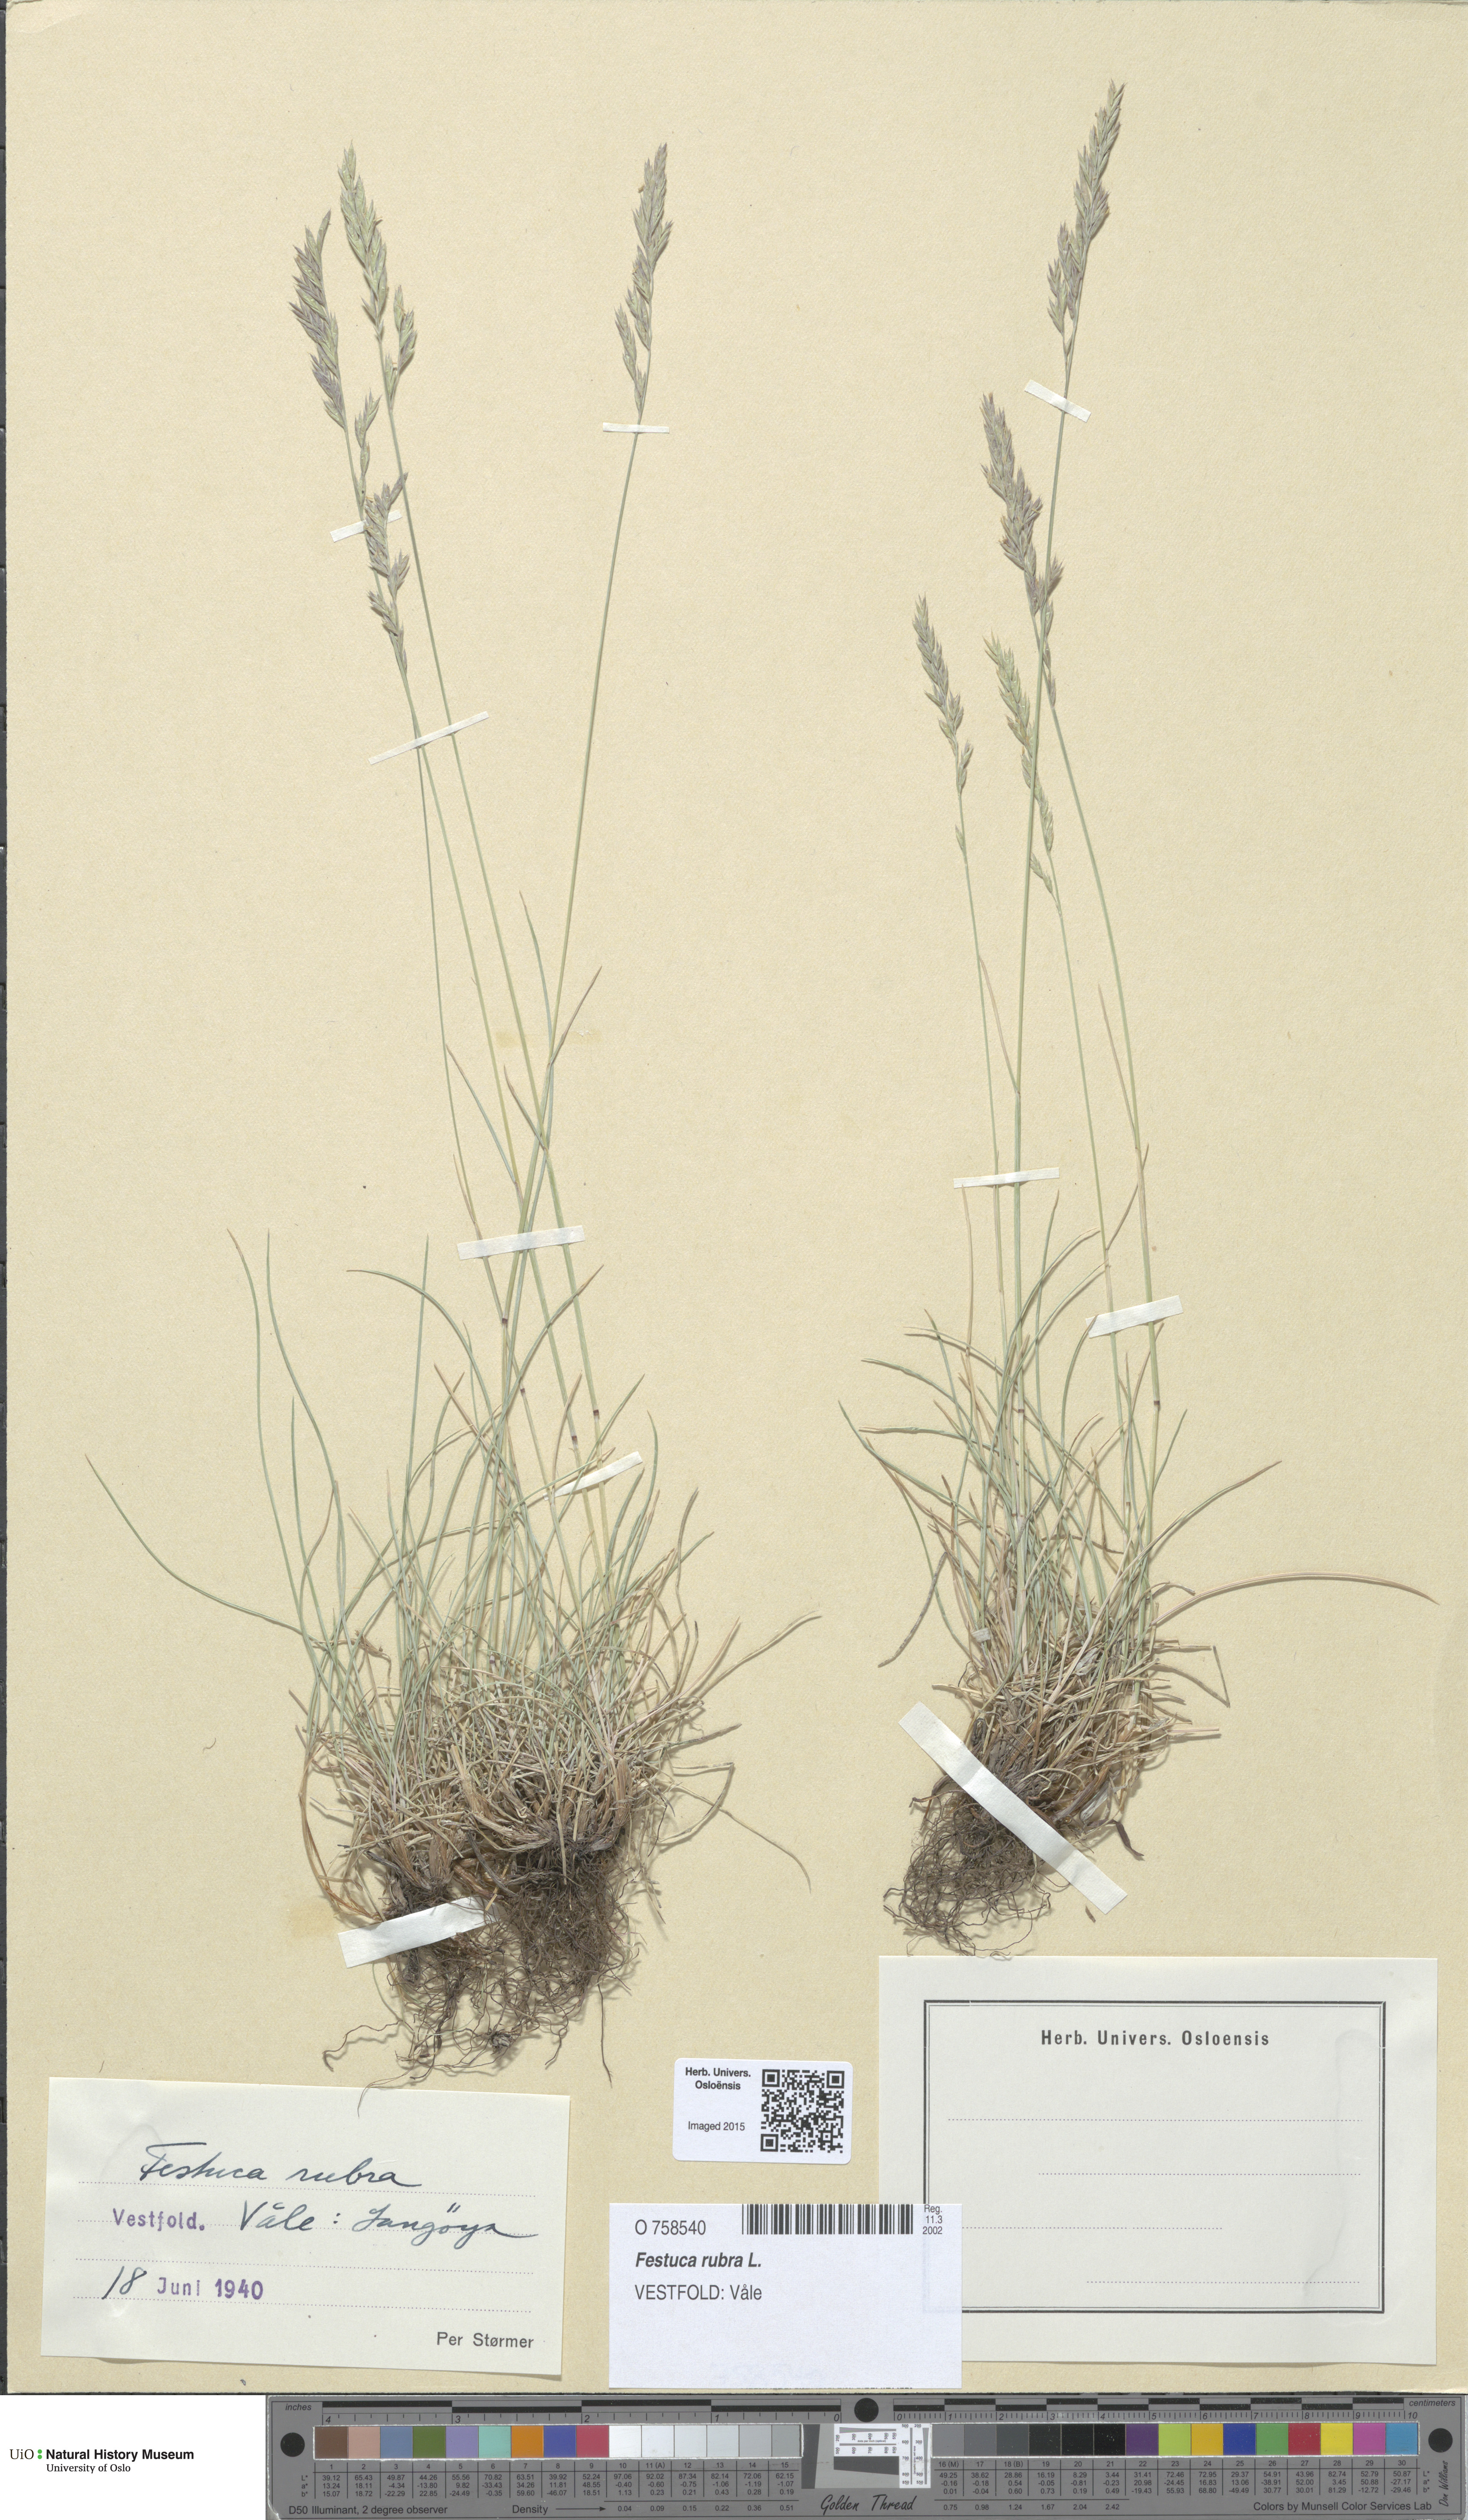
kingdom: Plantae
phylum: Tracheophyta
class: Liliopsida
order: Poales
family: Poaceae
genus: Festuca
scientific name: Festuca rubra
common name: Red fescue
